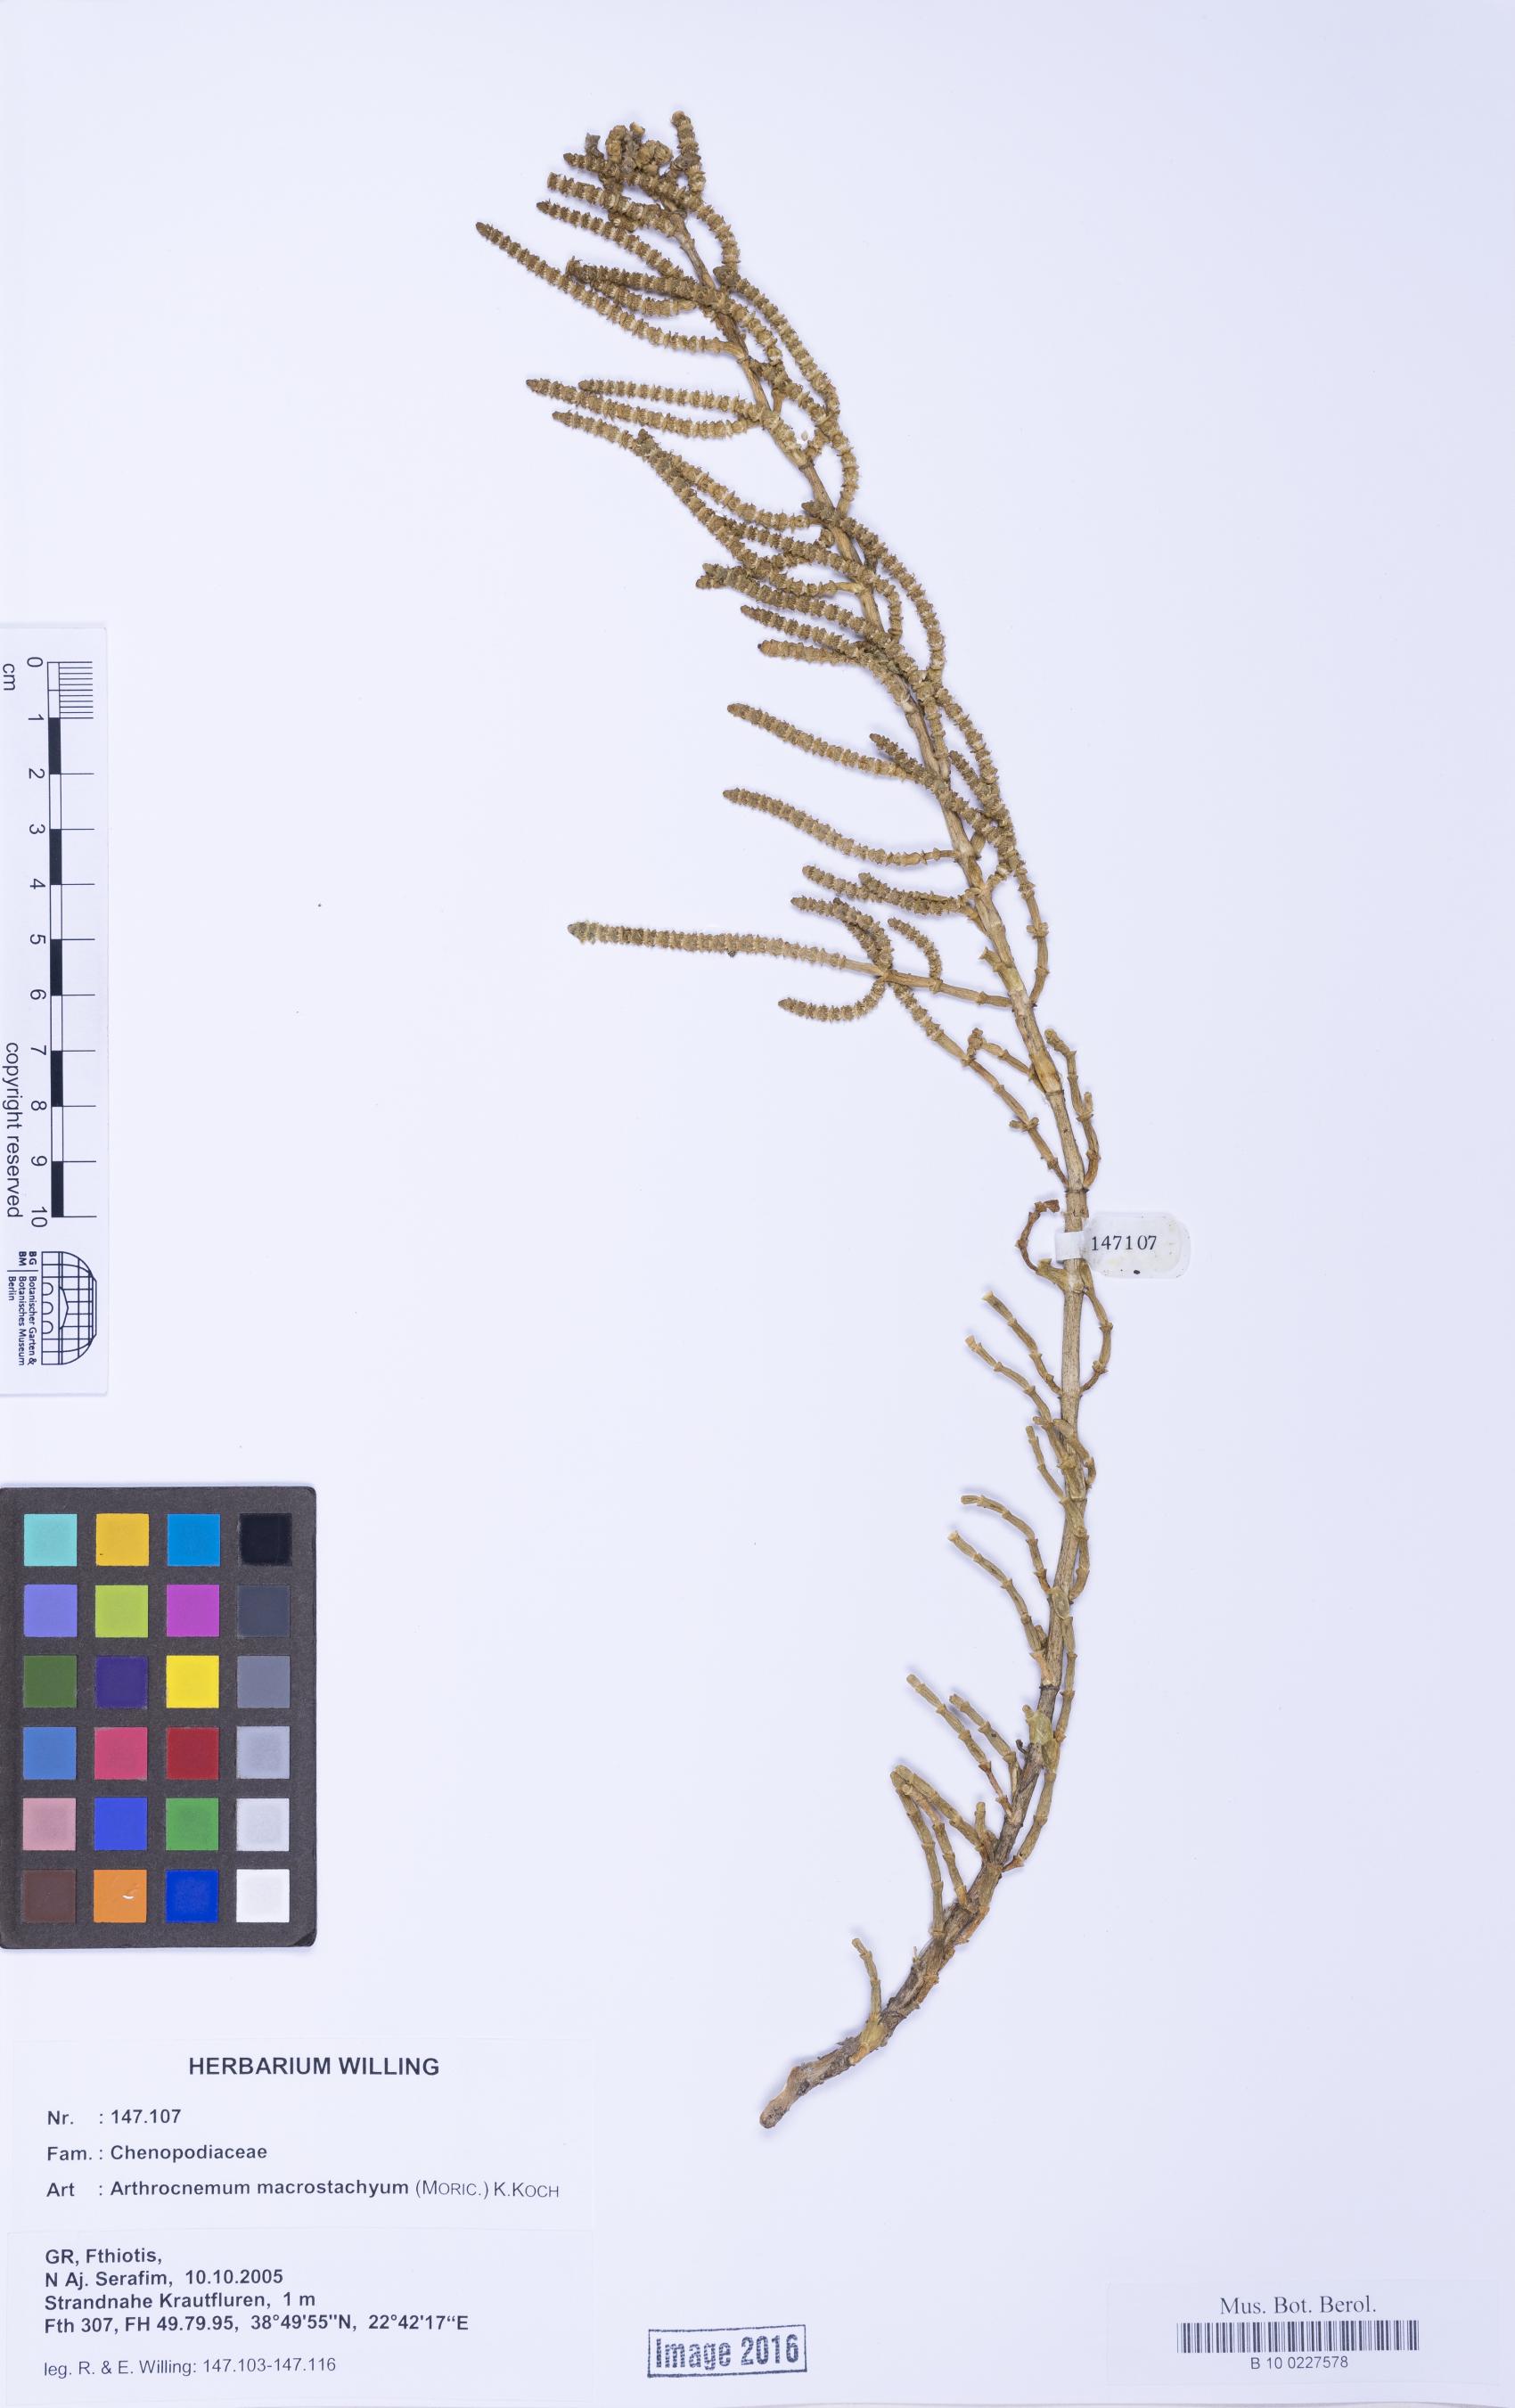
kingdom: Plantae
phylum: Tracheophyta
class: Magnoliopsida
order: Caryophyllales
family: Amaranthaceae
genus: Arthrocaulon
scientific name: Arthrocaulon macrostachyum
